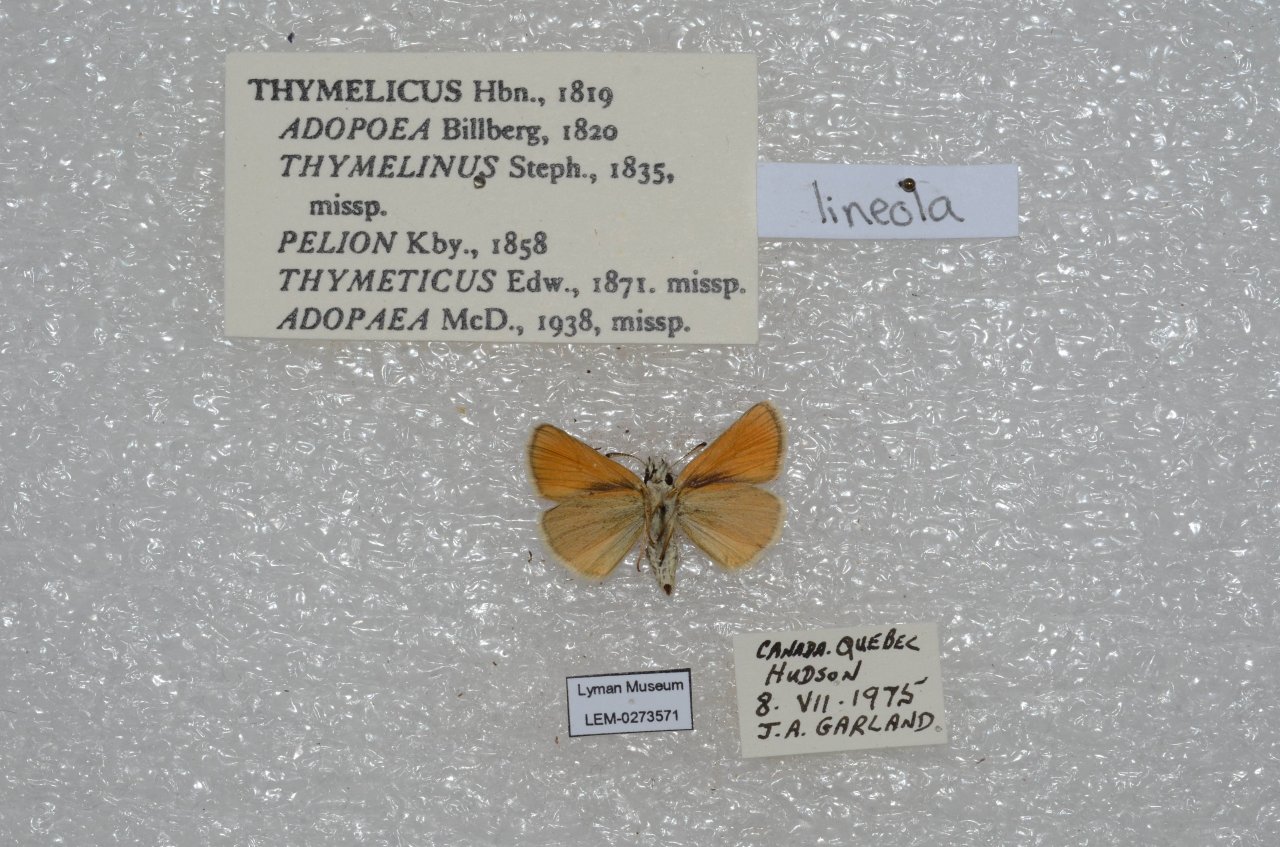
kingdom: Animalia
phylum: Arthropoda
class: Insecta
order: Lepidoptera
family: Hesperiidae
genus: Thymelicus
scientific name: Thymelicus lineola
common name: European Skipper
